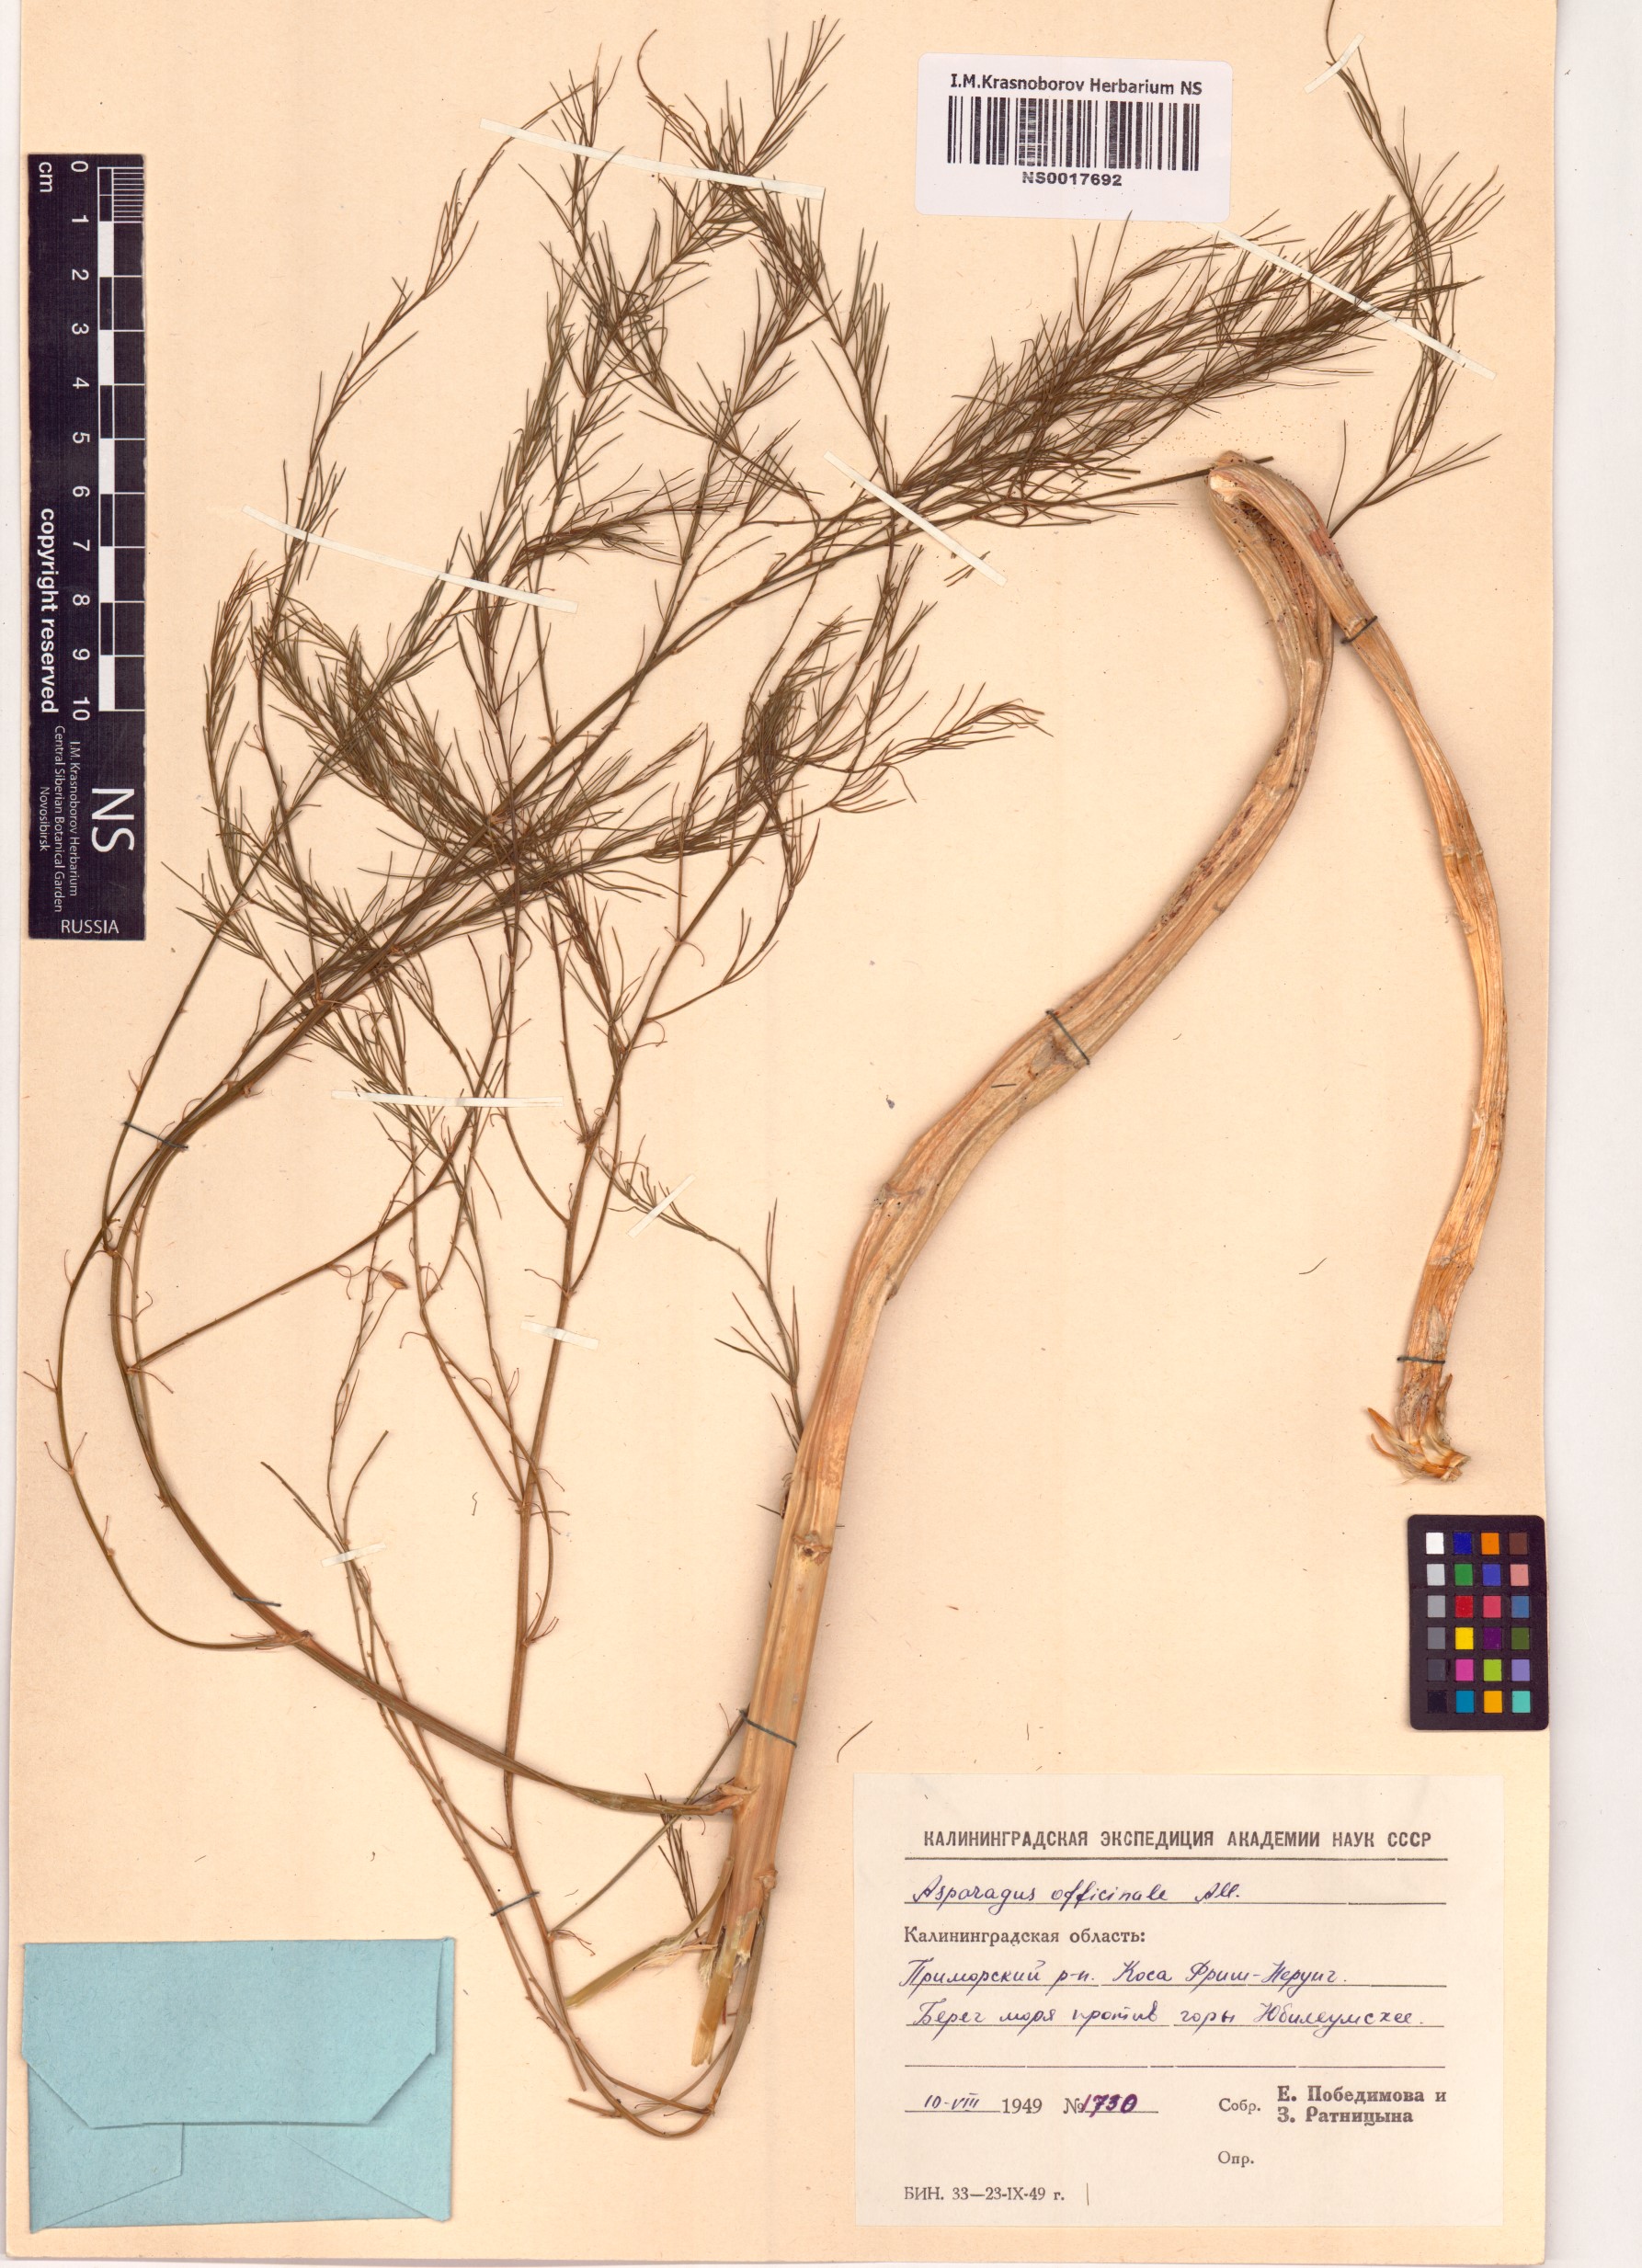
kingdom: Plantae
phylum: Tracheophyta
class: Liliopsida
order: Asparagales
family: Asparagaceae
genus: Asparagus
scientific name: Asparagus officinalis
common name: Garden asparagus
